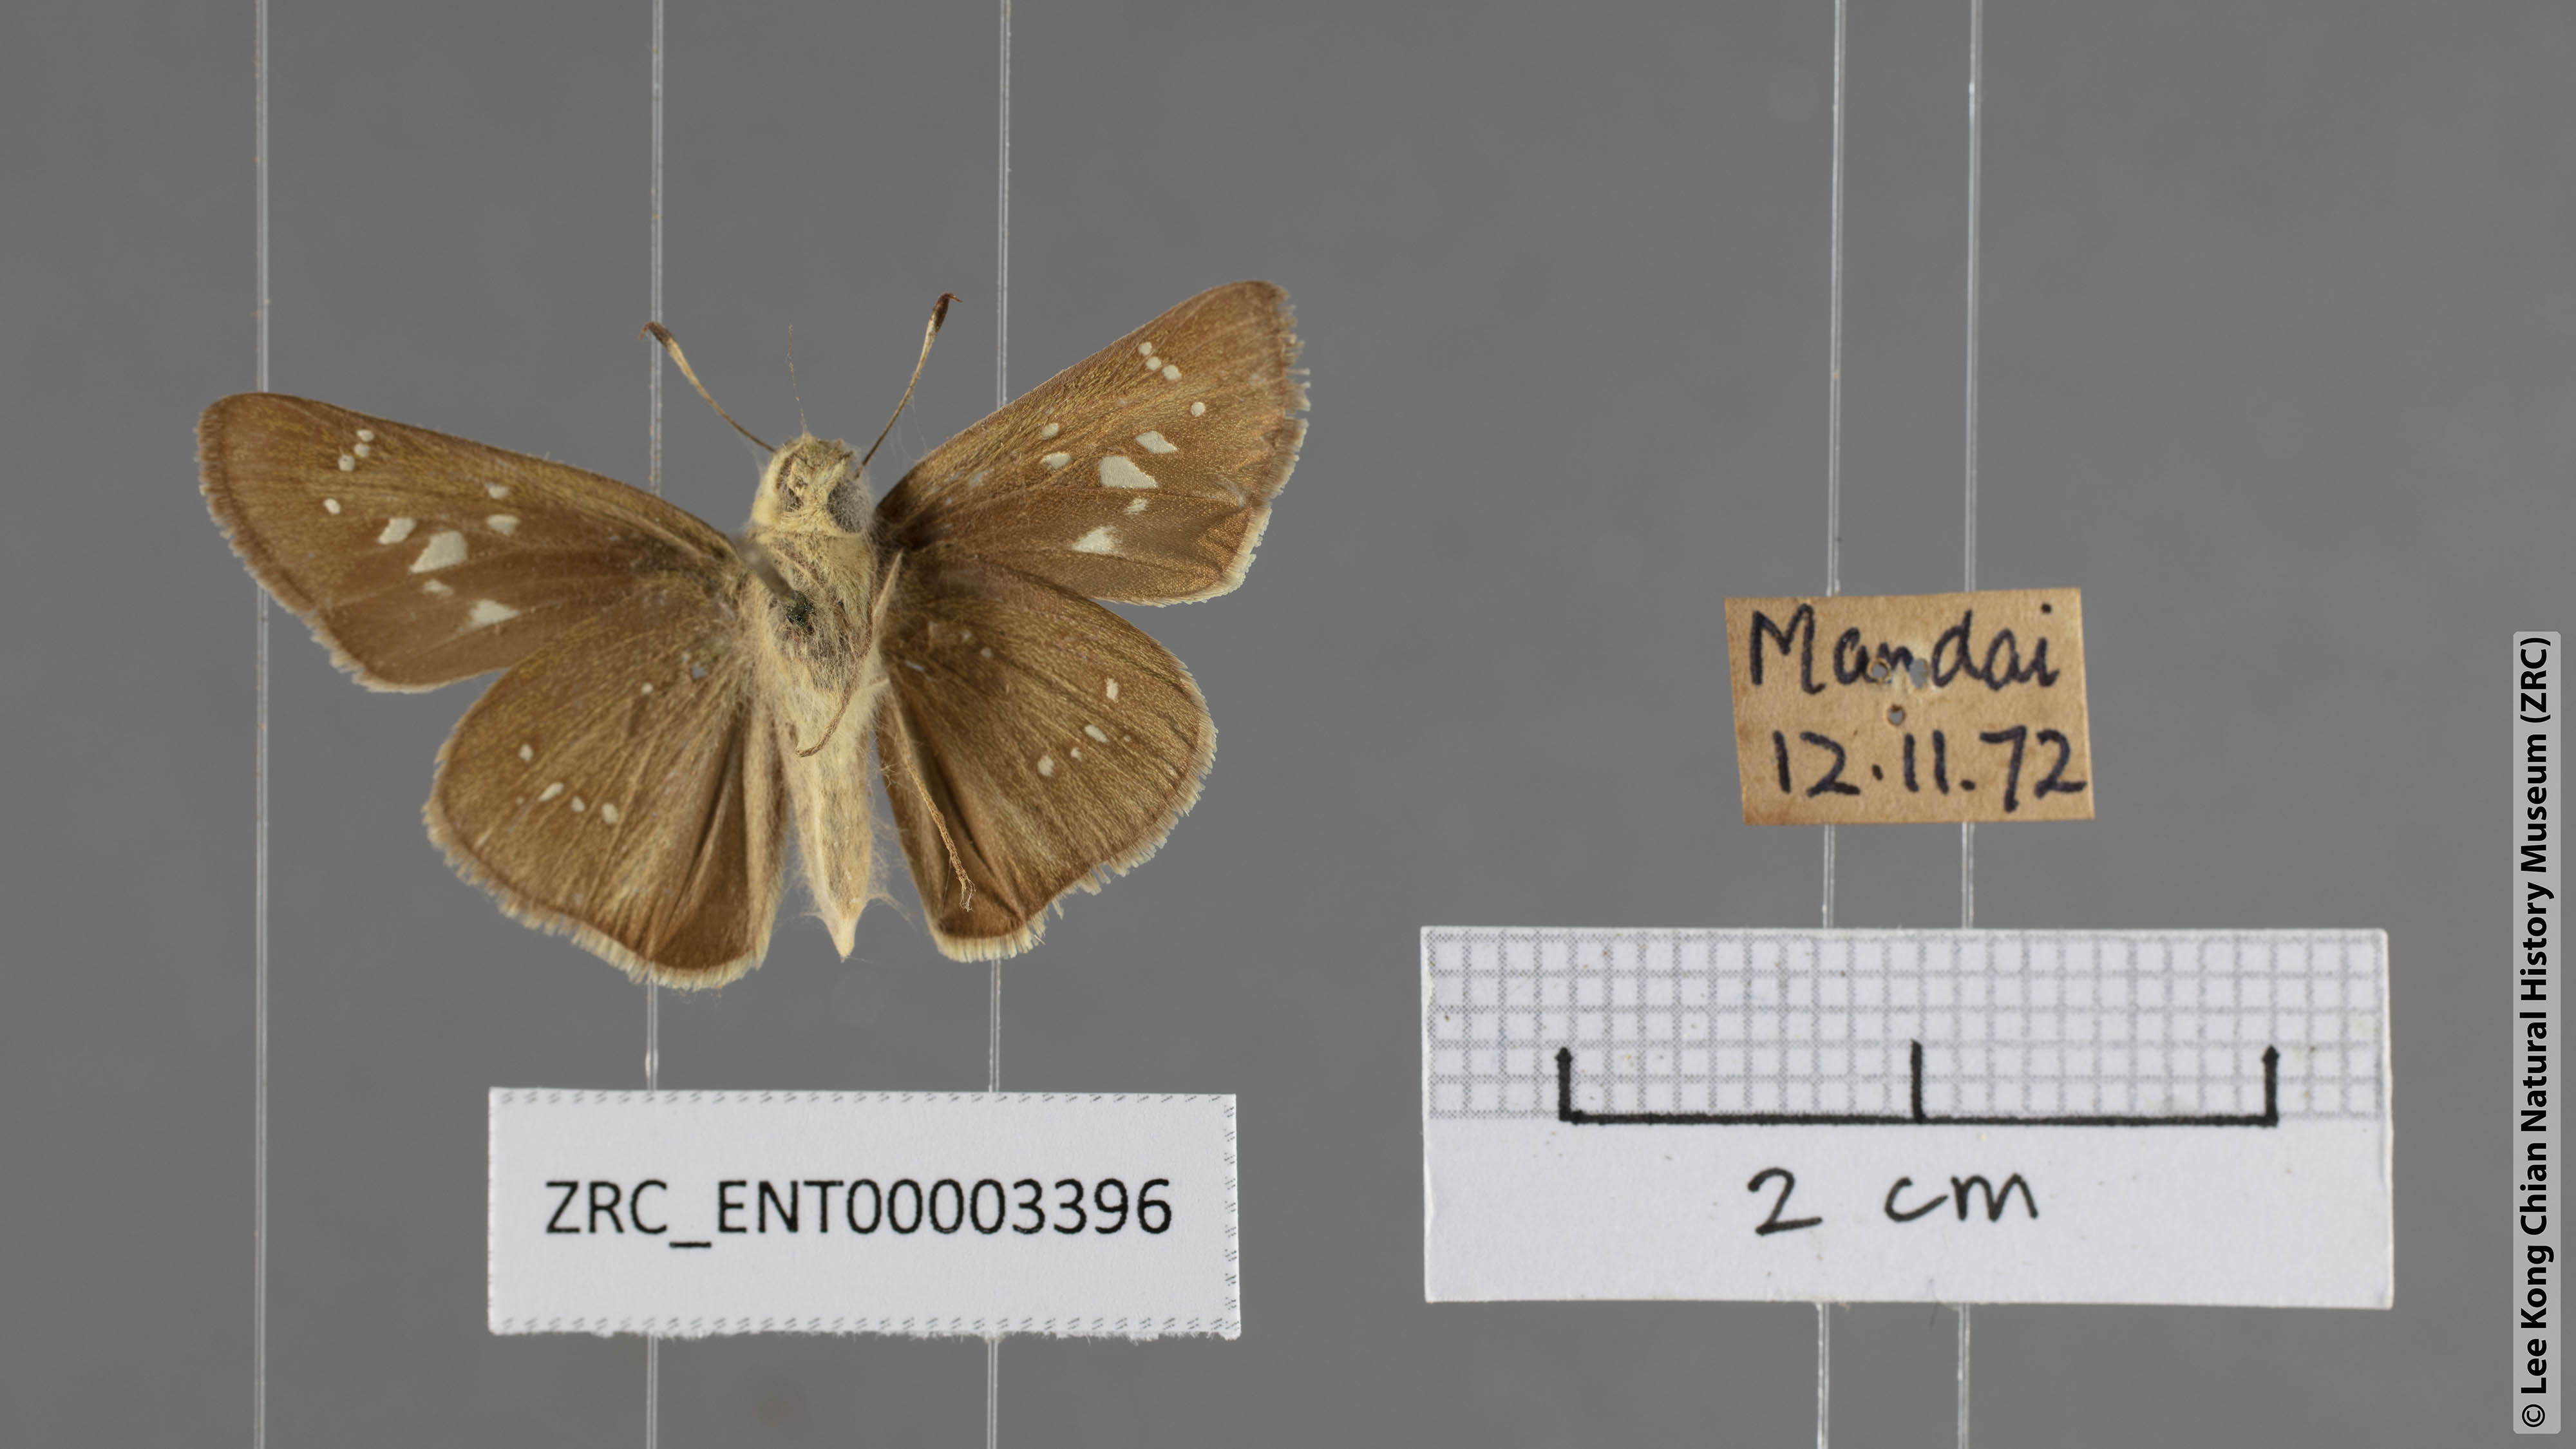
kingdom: Animalia
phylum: Arthropoda
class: Insecta
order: Lepidoptera
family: Hesperiidae
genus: Pelopidas
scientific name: Pelopidas agna
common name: Little branded swift
